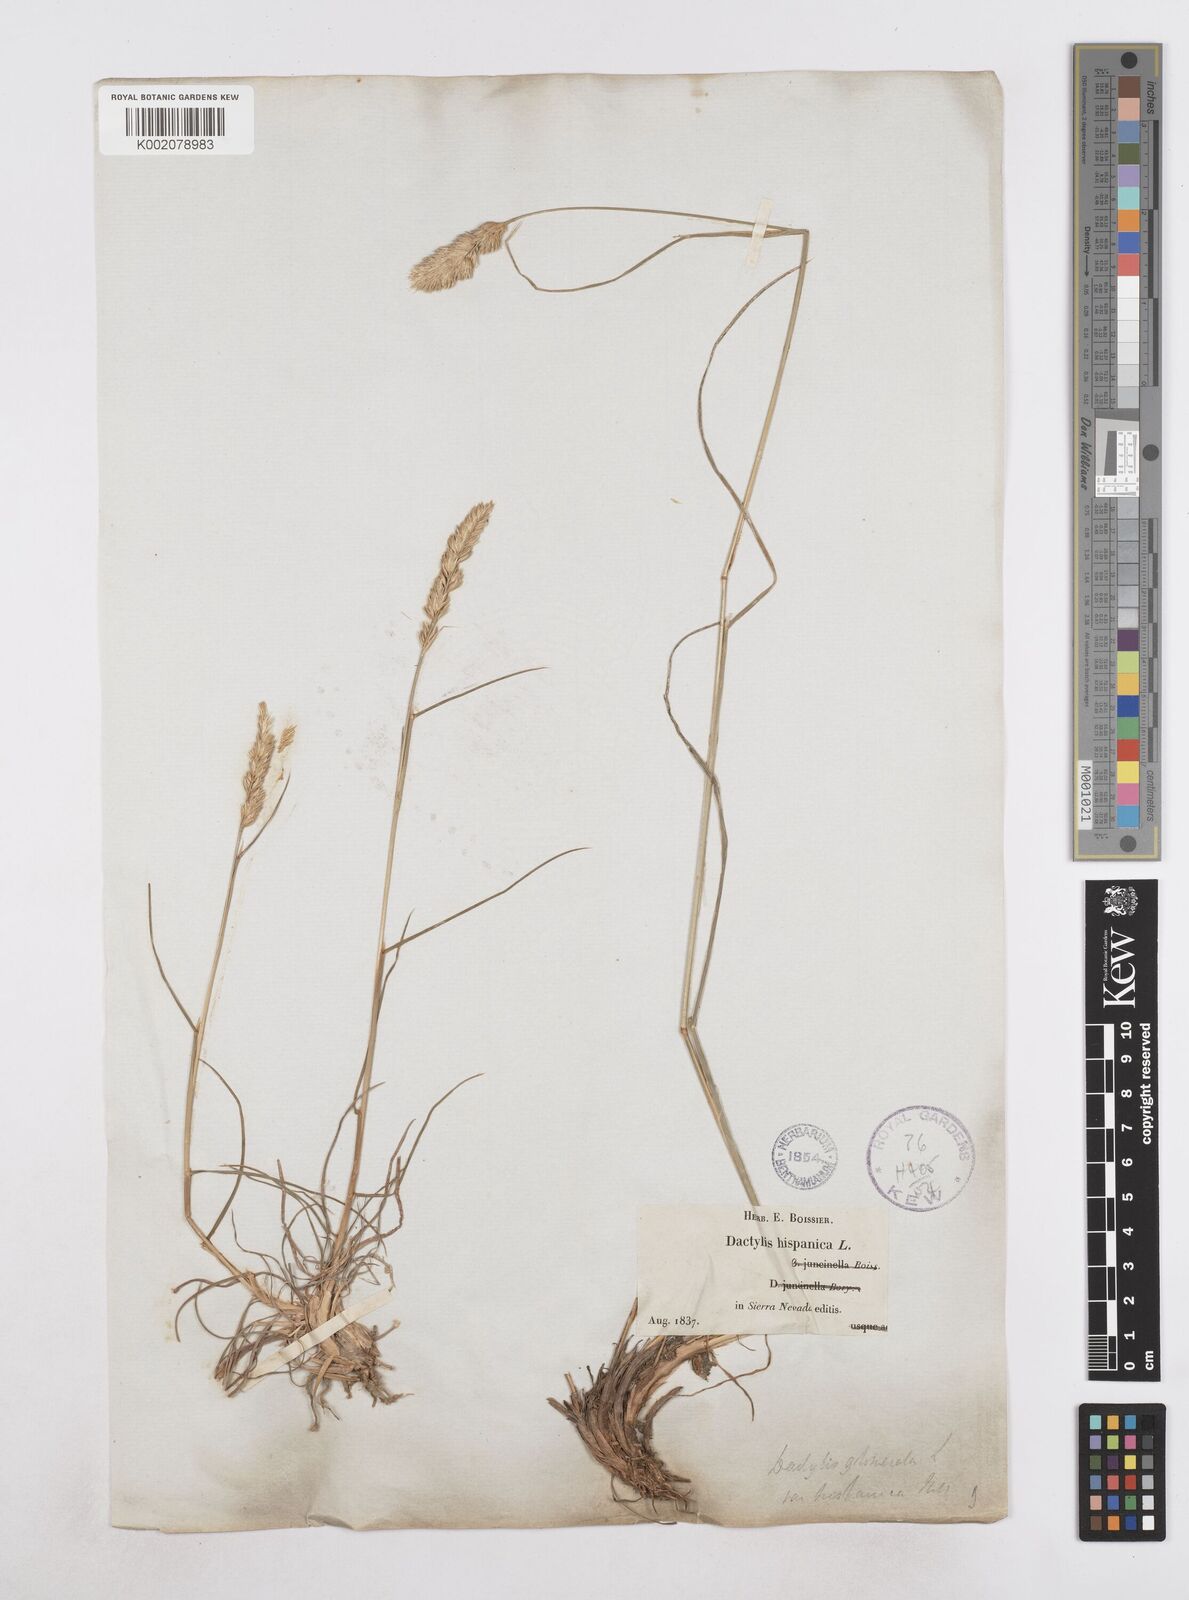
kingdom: Plantae
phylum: Tracheophyta
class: Liliopsida
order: Poales
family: Poaceae
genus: Dactylis
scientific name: Dactylis glomerata
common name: Orchardgrass
